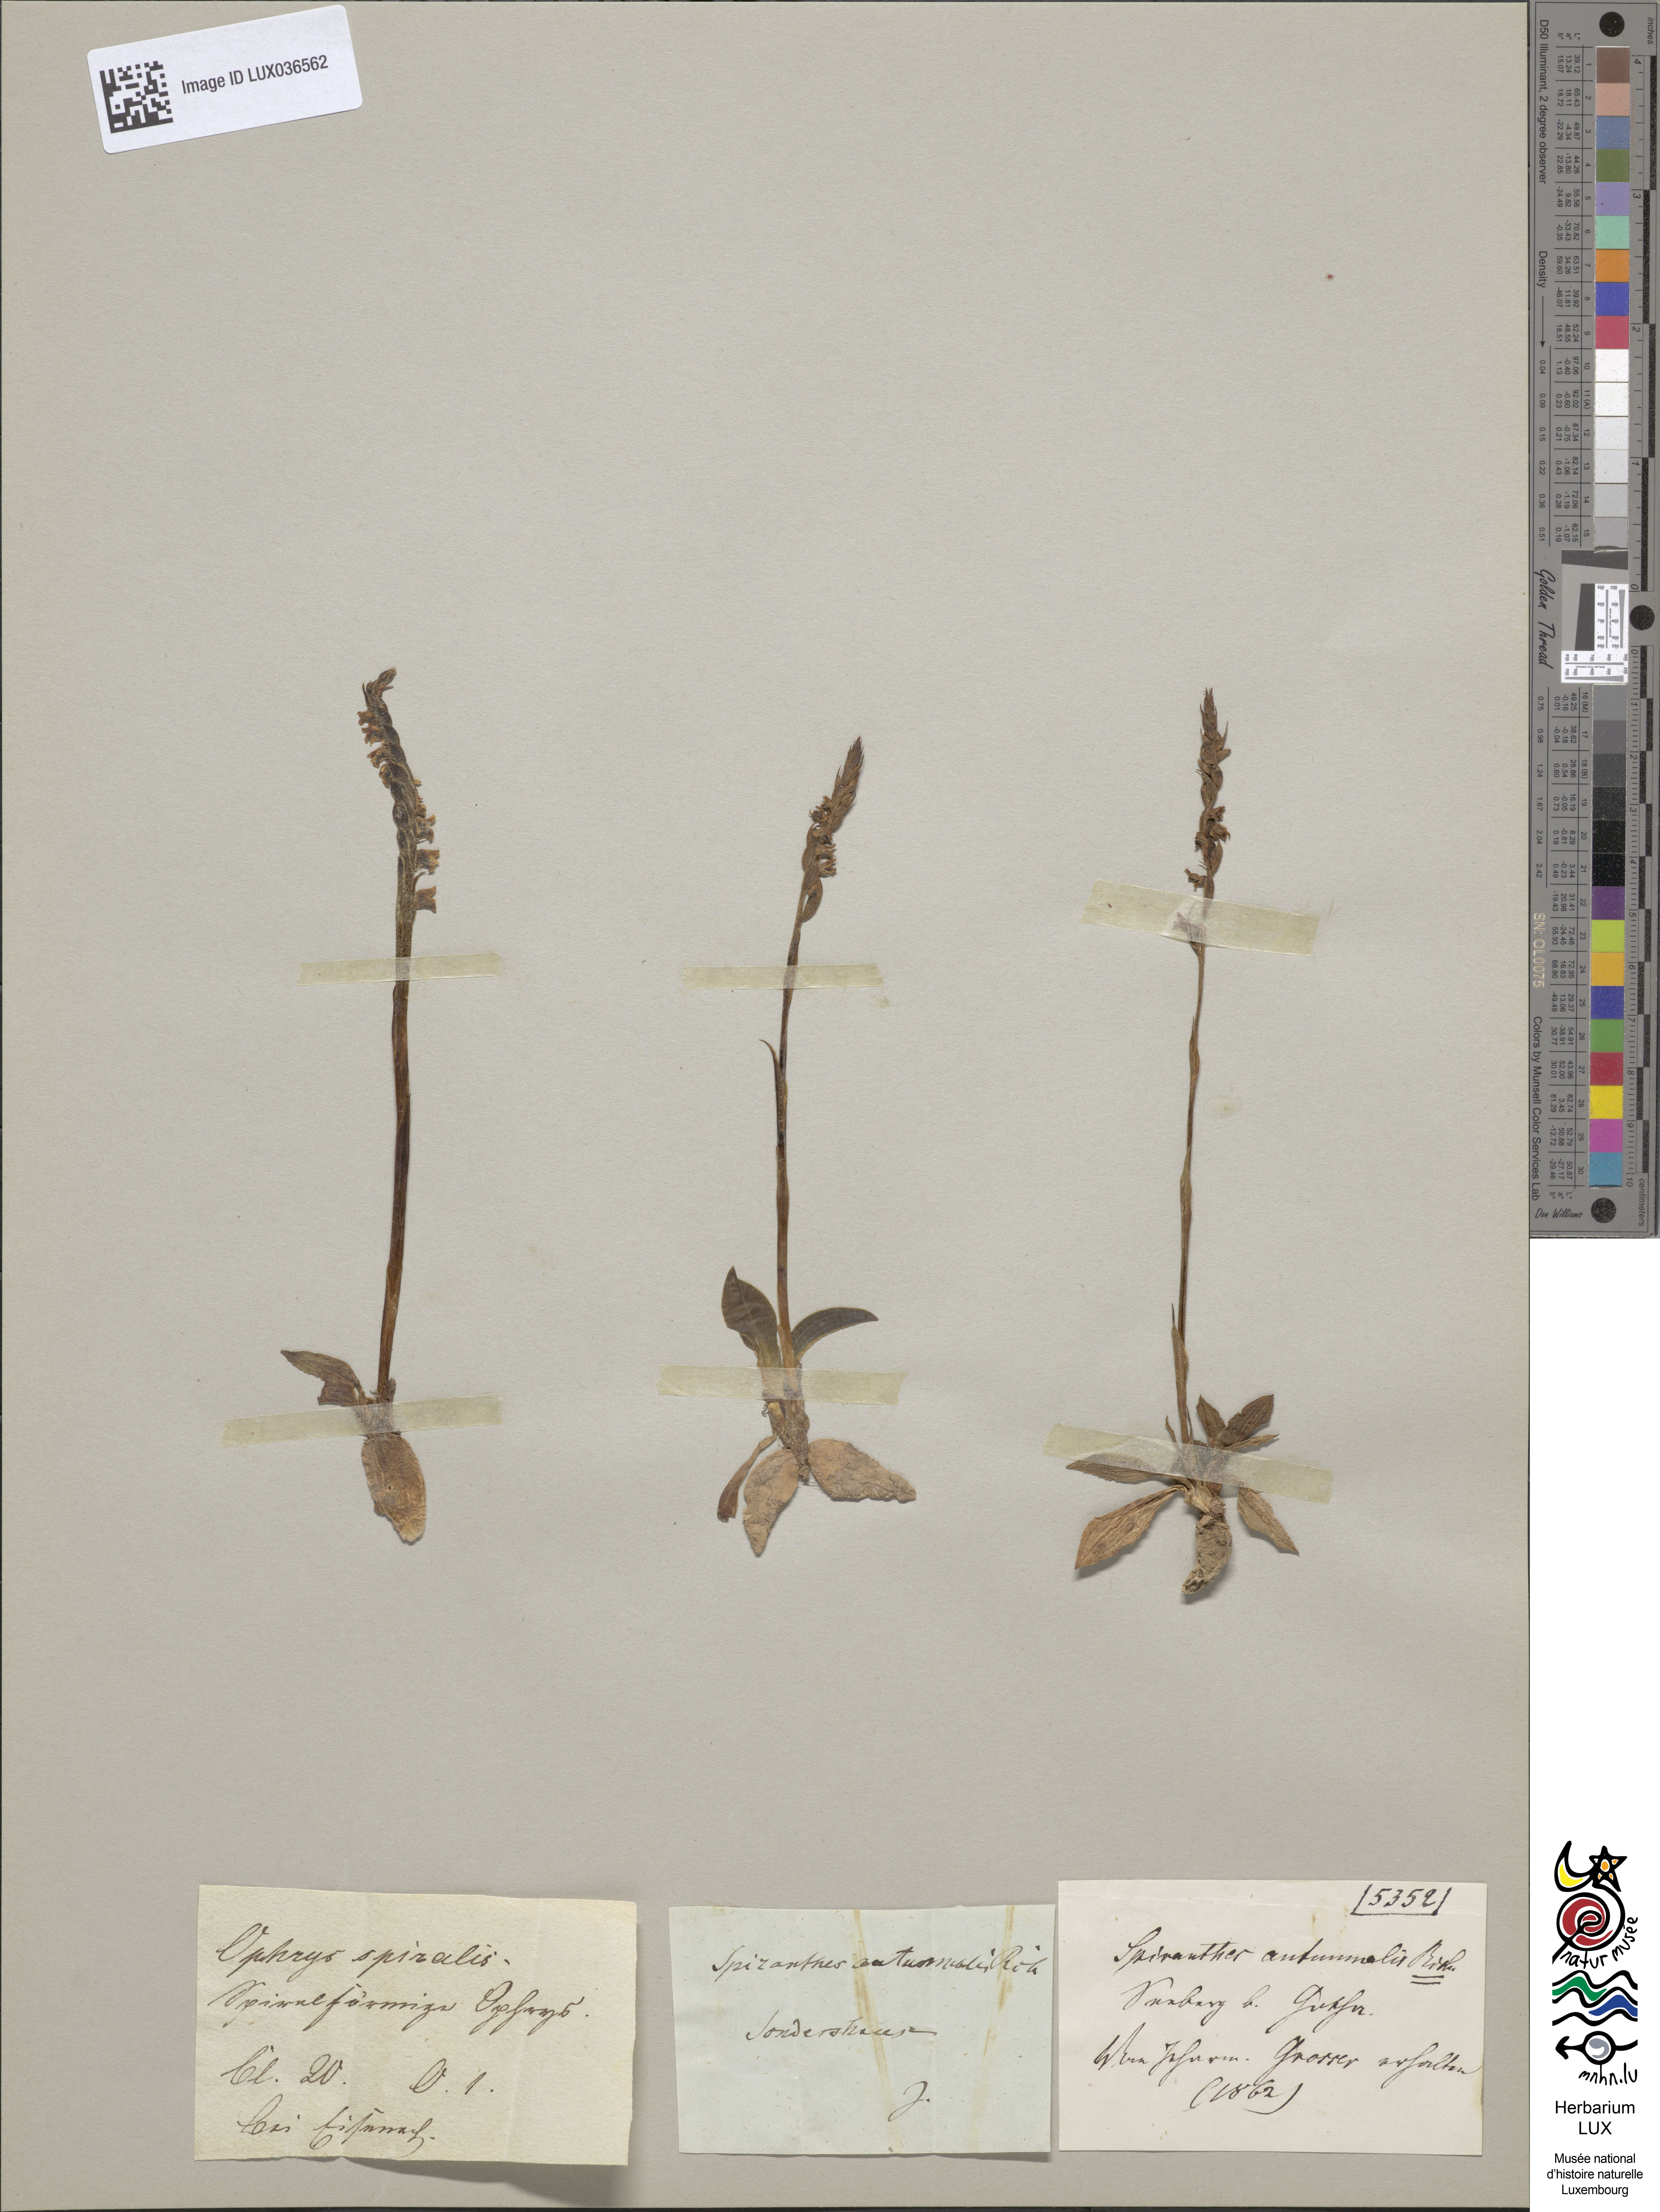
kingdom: Plantae
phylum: Tracheophyta
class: Liliopsida
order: Asparagales
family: Orchidaceae
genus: Spiranthes
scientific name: Spiranthes spiralis
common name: Autumn lady's-tresses
